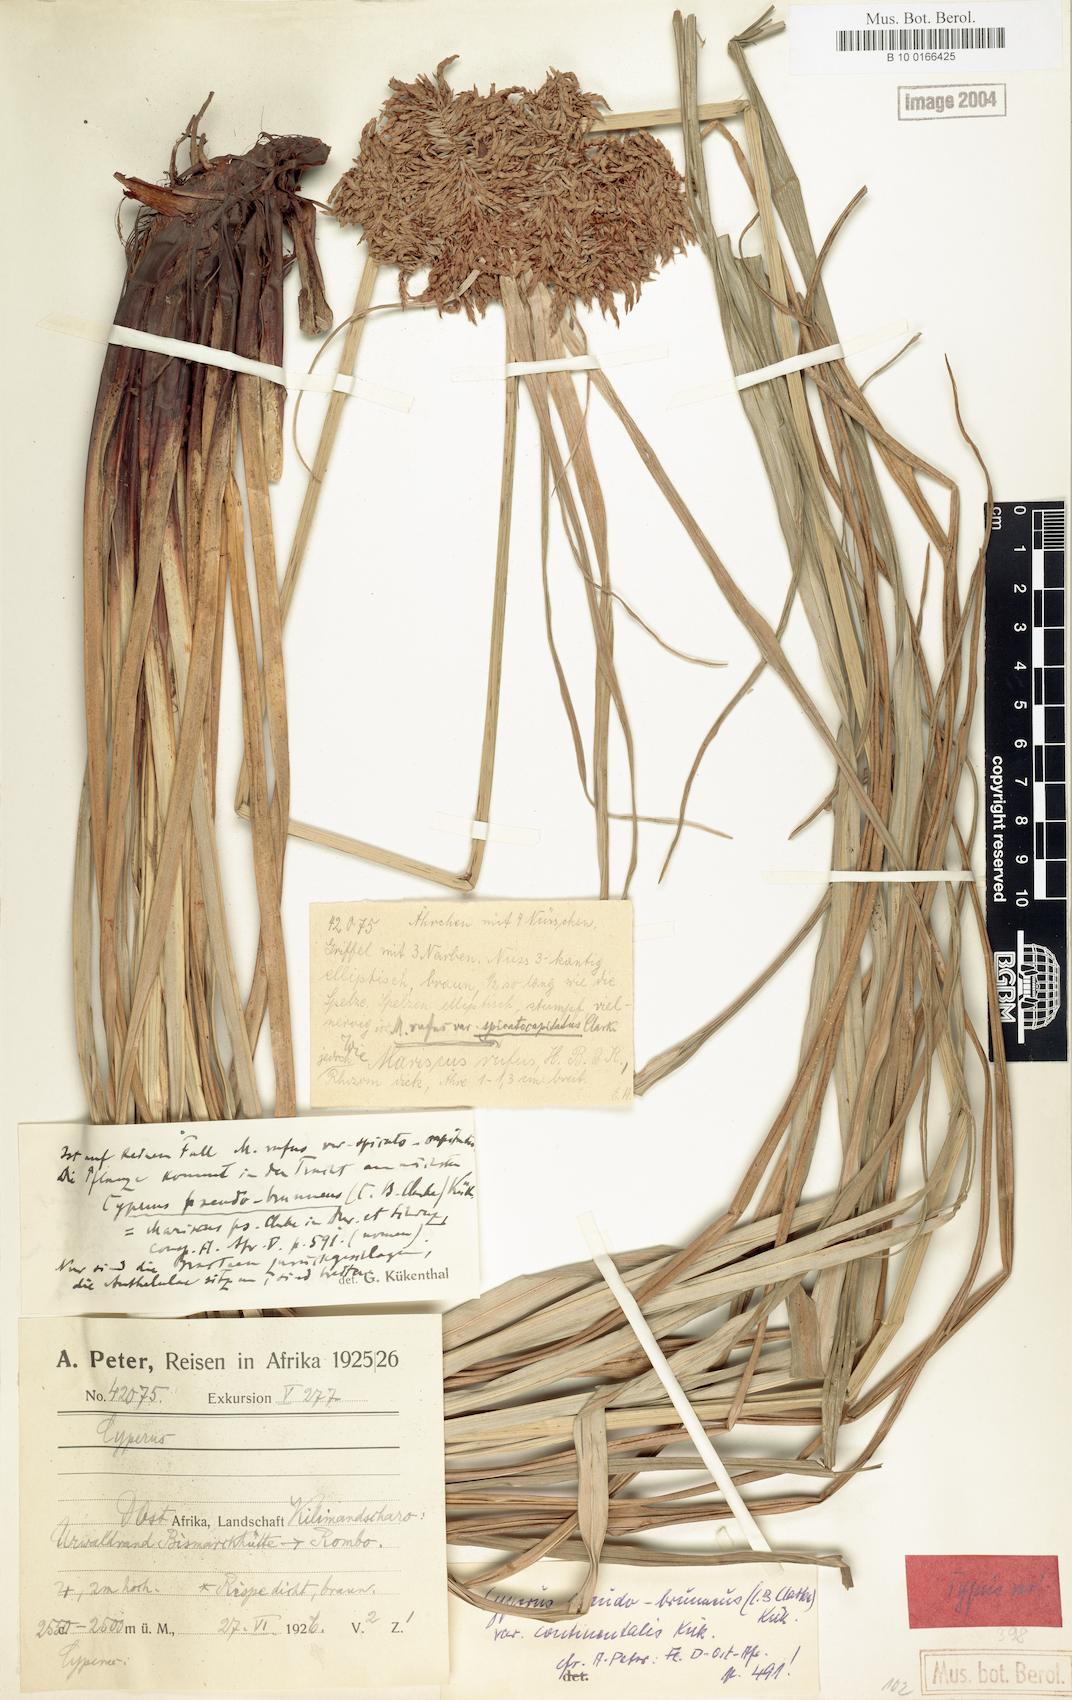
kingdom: Plantae
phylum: Tracheophyta
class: Liliopsida
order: Poales
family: Cyperaceae
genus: Cyperus
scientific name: Cyperus pseudobrunneus
